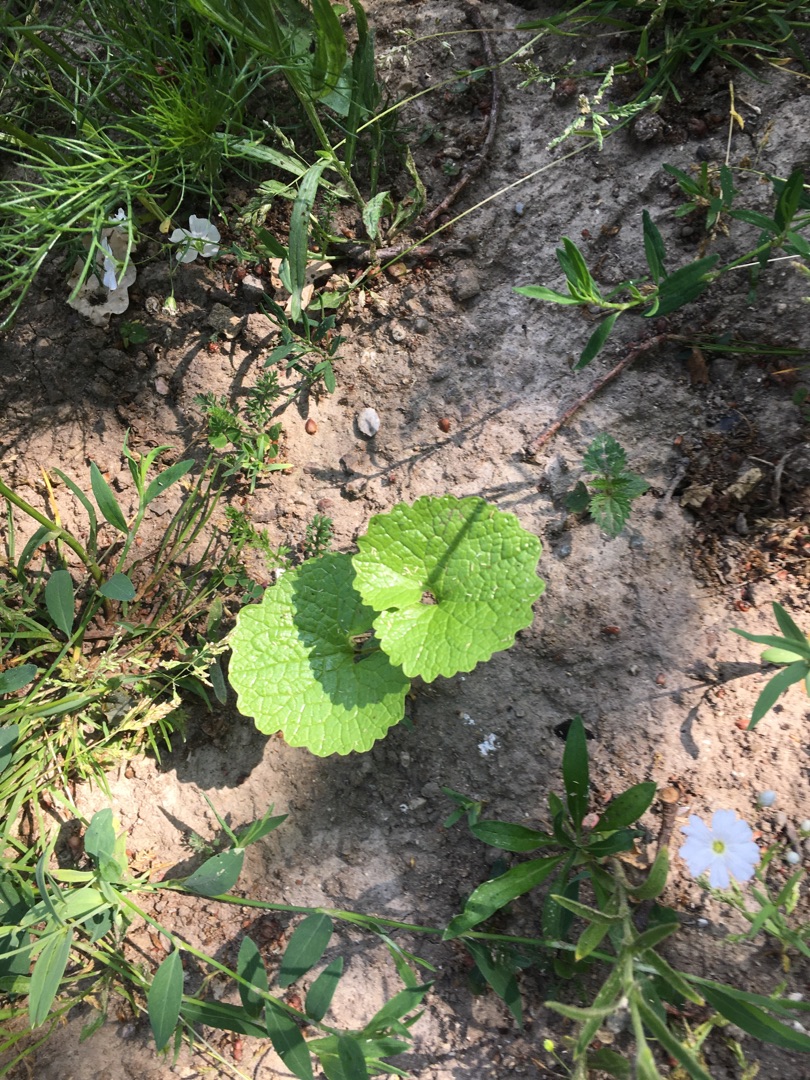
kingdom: Plantae
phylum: Tracheophyta
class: Magnoliopsida
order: Brassicales
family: Brassicaceae
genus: Alliaria
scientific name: Alliaria petiolata
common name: Løgkarse
